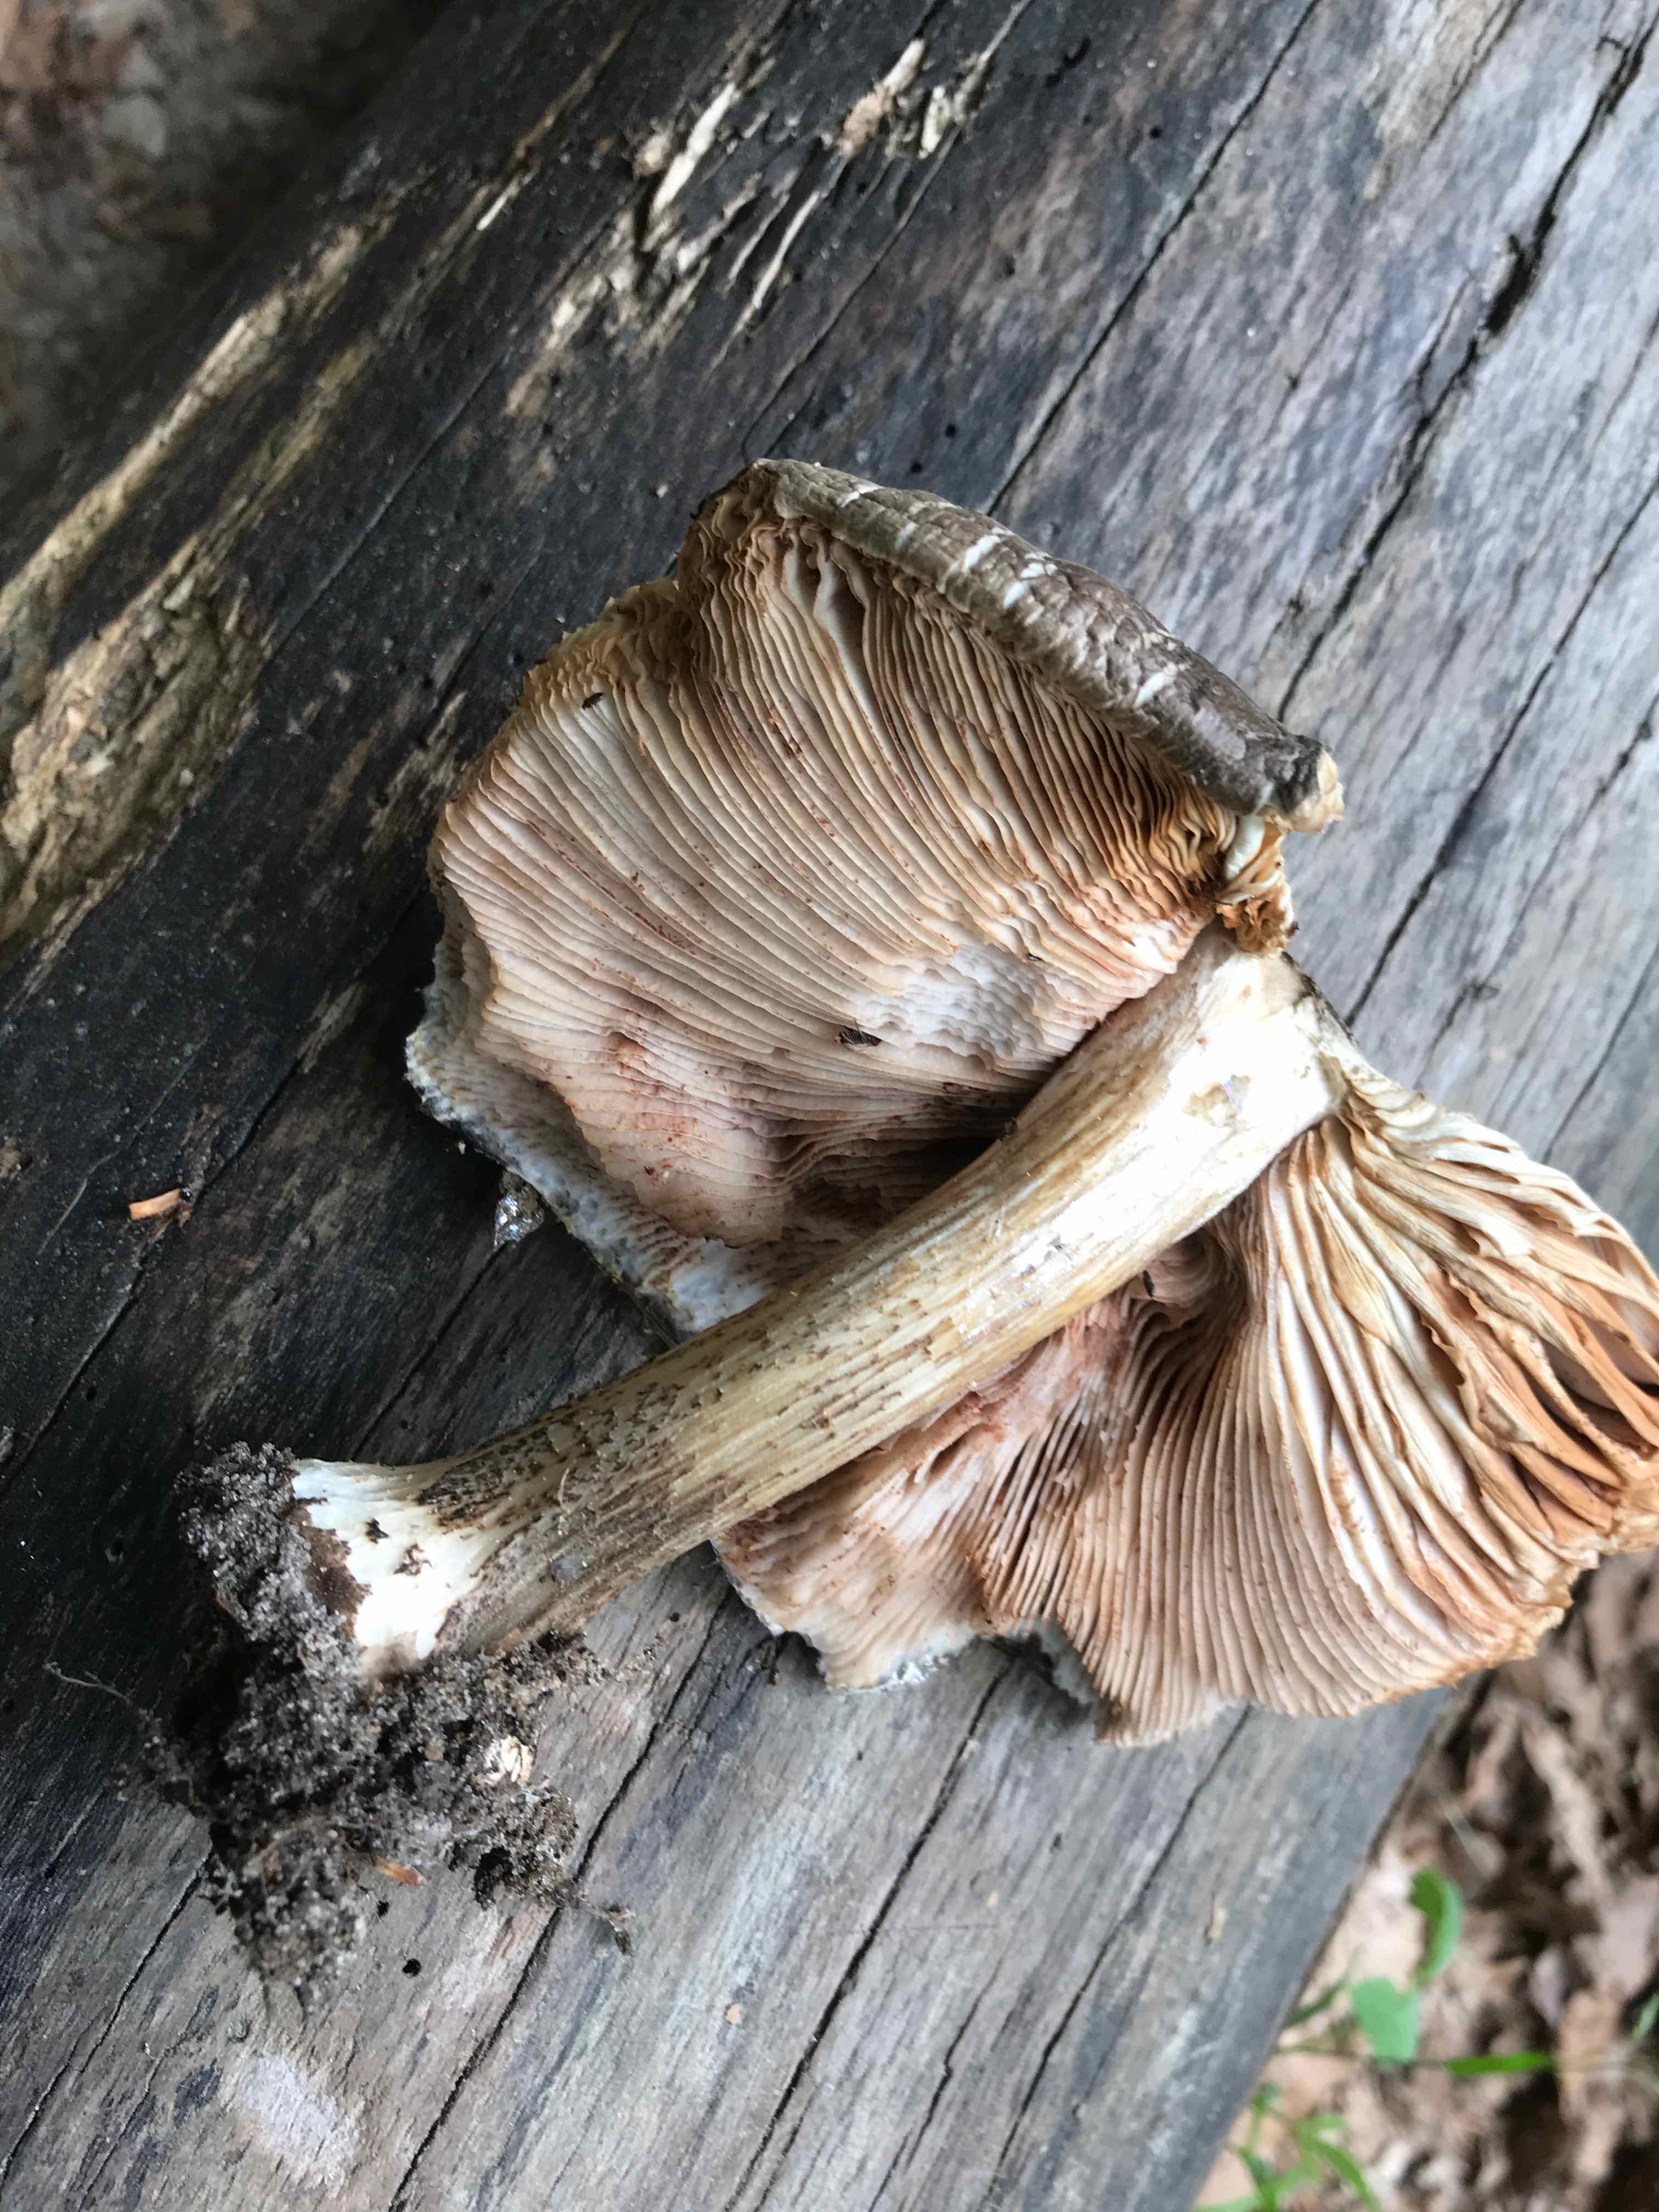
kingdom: Fungi
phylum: Basidiomycota
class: Agaricomycetes
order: Agaricales
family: Pluteaceae
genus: Pluteus
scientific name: Pluteus cervinus
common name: sodfarvet skærmhat
